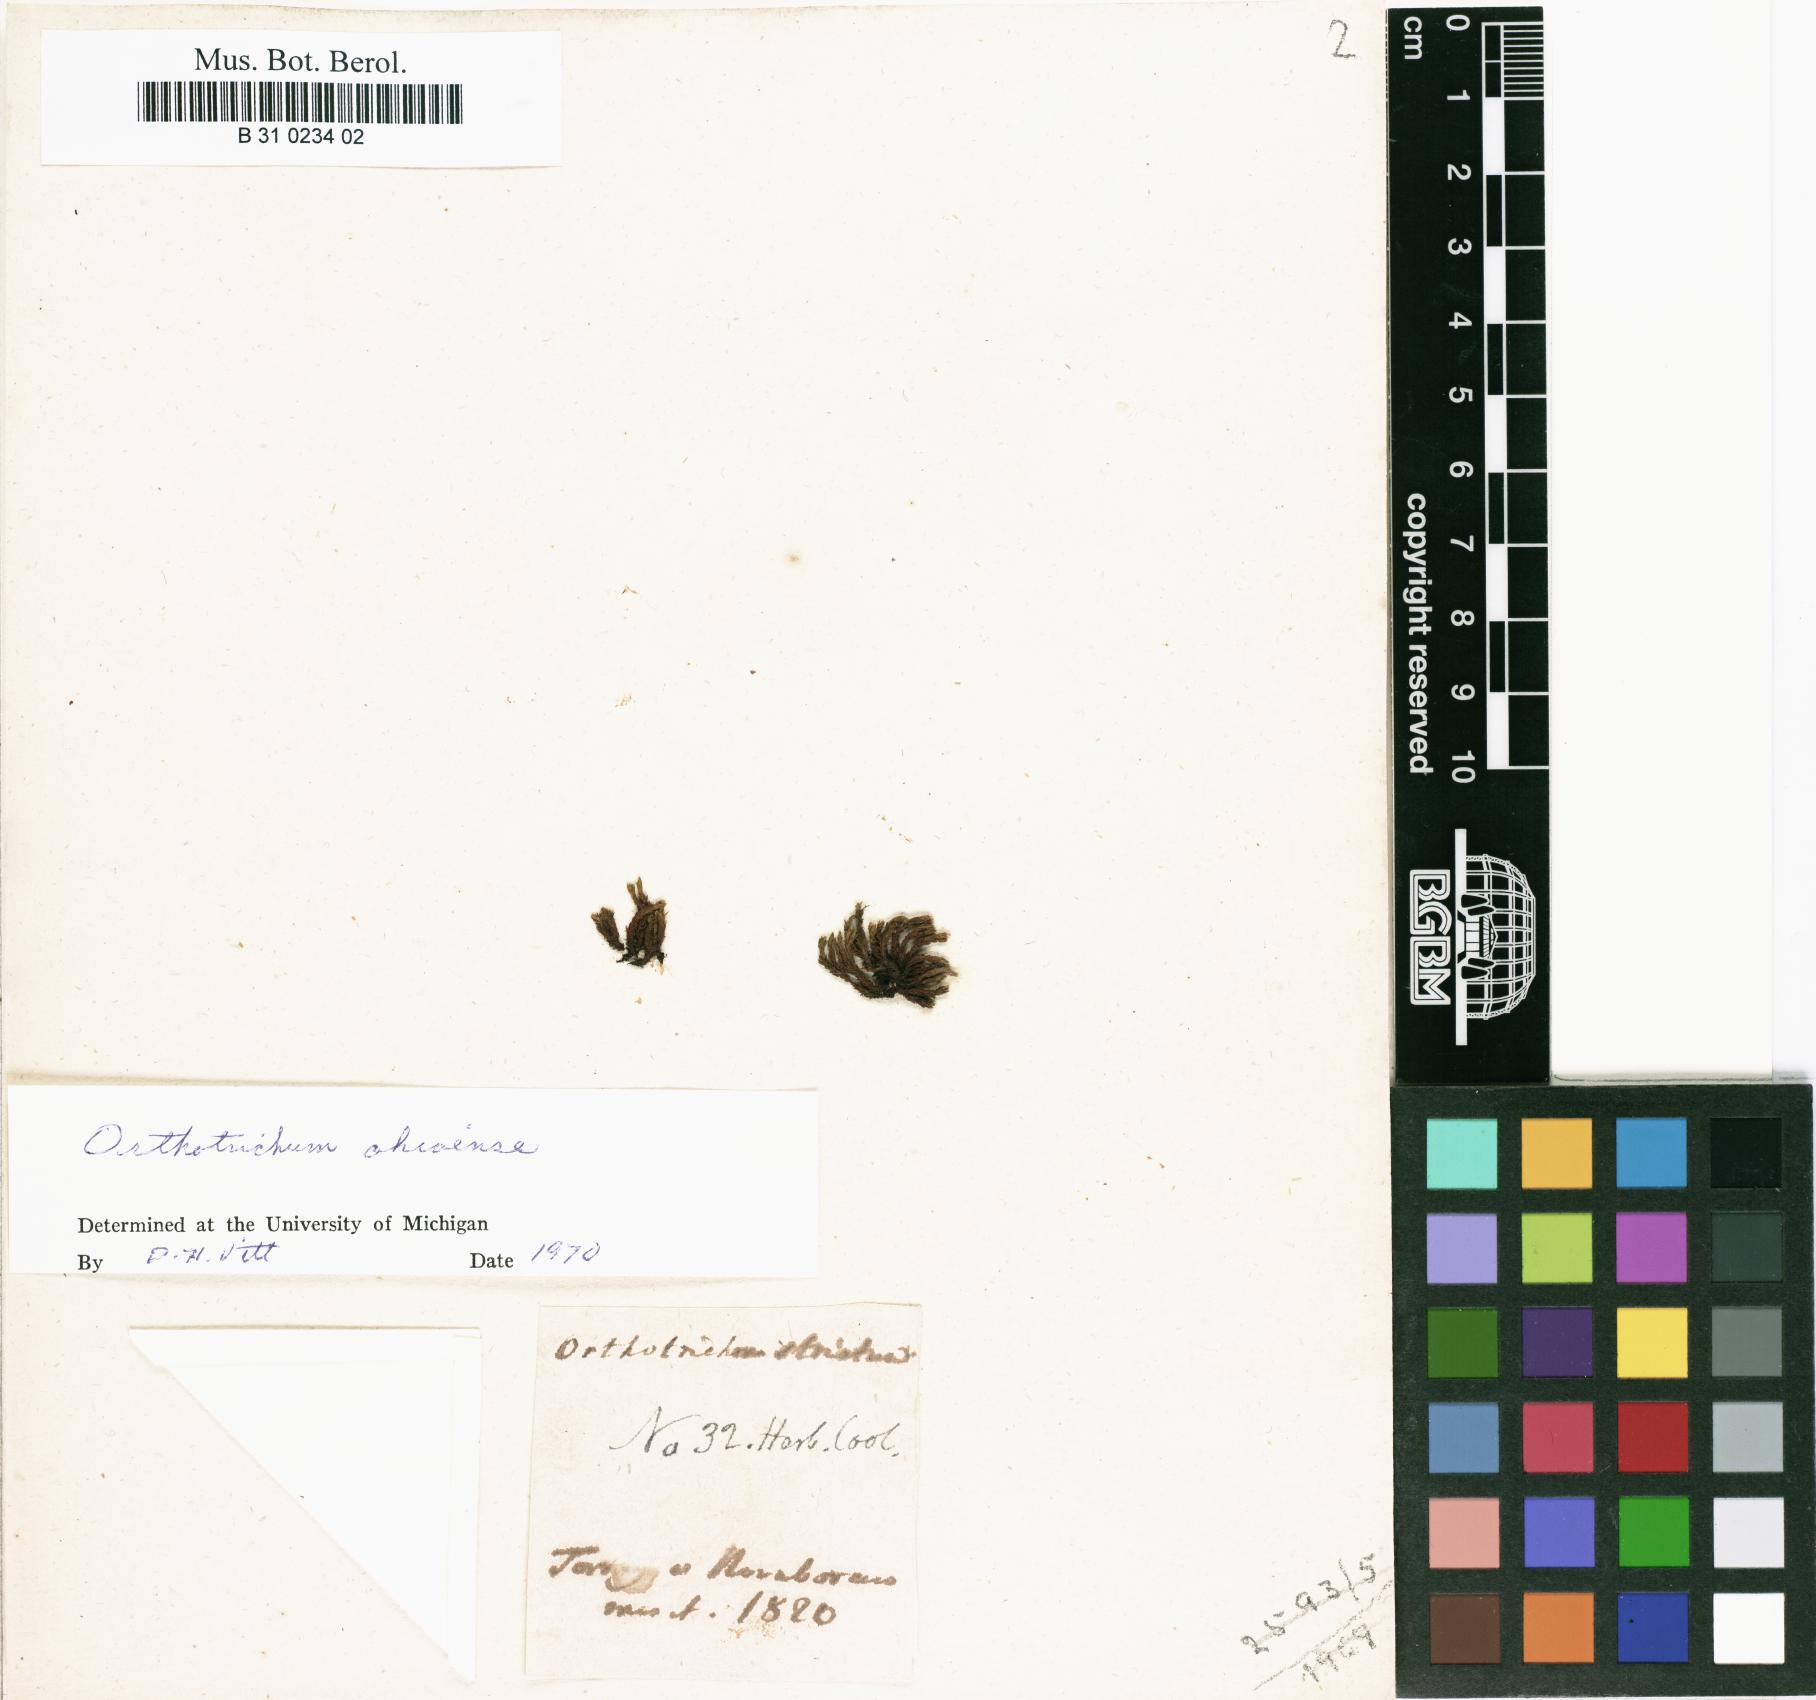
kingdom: Plantae
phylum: Bryophyta
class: Bryopsida
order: Orthotrichales
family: Orthotrichaceae
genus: Lewinskya
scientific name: Lewinskya striata
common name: Shaw's bristle-moss
